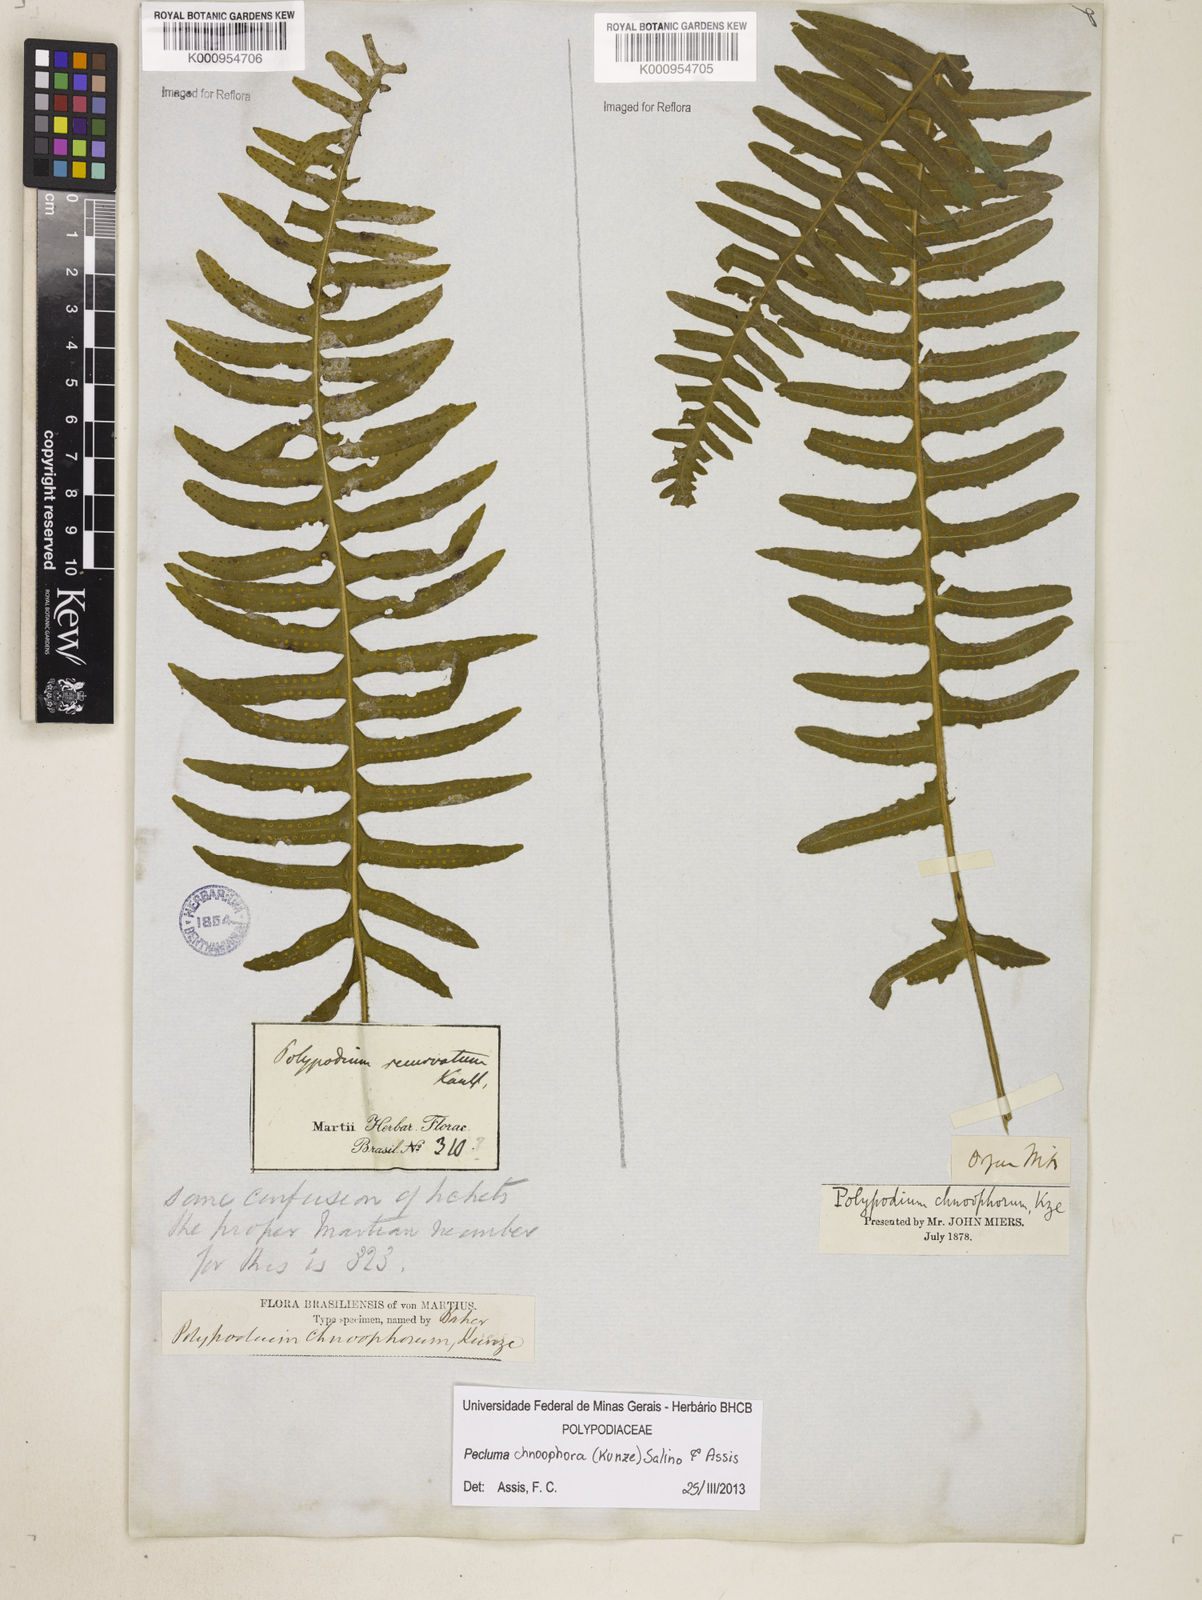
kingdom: Plantae
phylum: Tracheophyta
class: Polypodiopsida
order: Polypodiales
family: Polypodiaceae
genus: Pecluma
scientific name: Pecluma chnoophora
